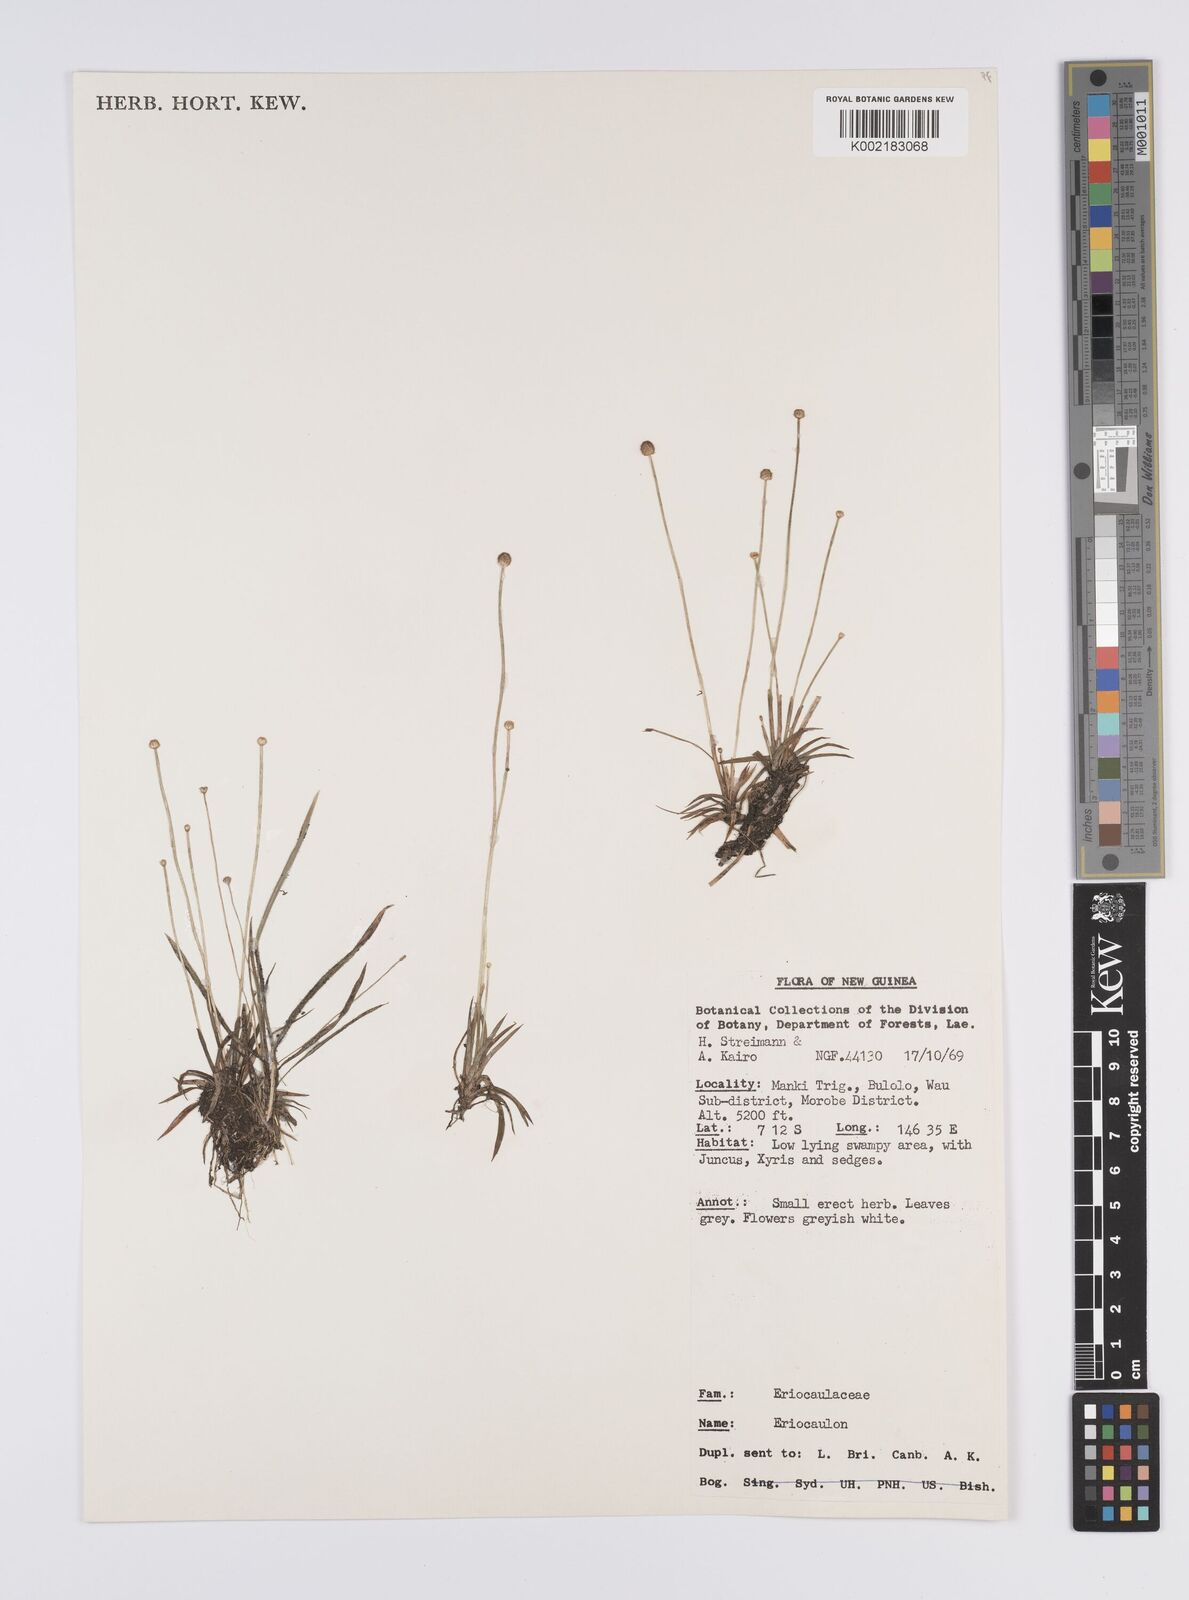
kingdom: Plantae
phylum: Tracheophyta
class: Liliopsida
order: Poales
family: Eriocaulaceae
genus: Eriocaulon
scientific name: Eriocaulon
